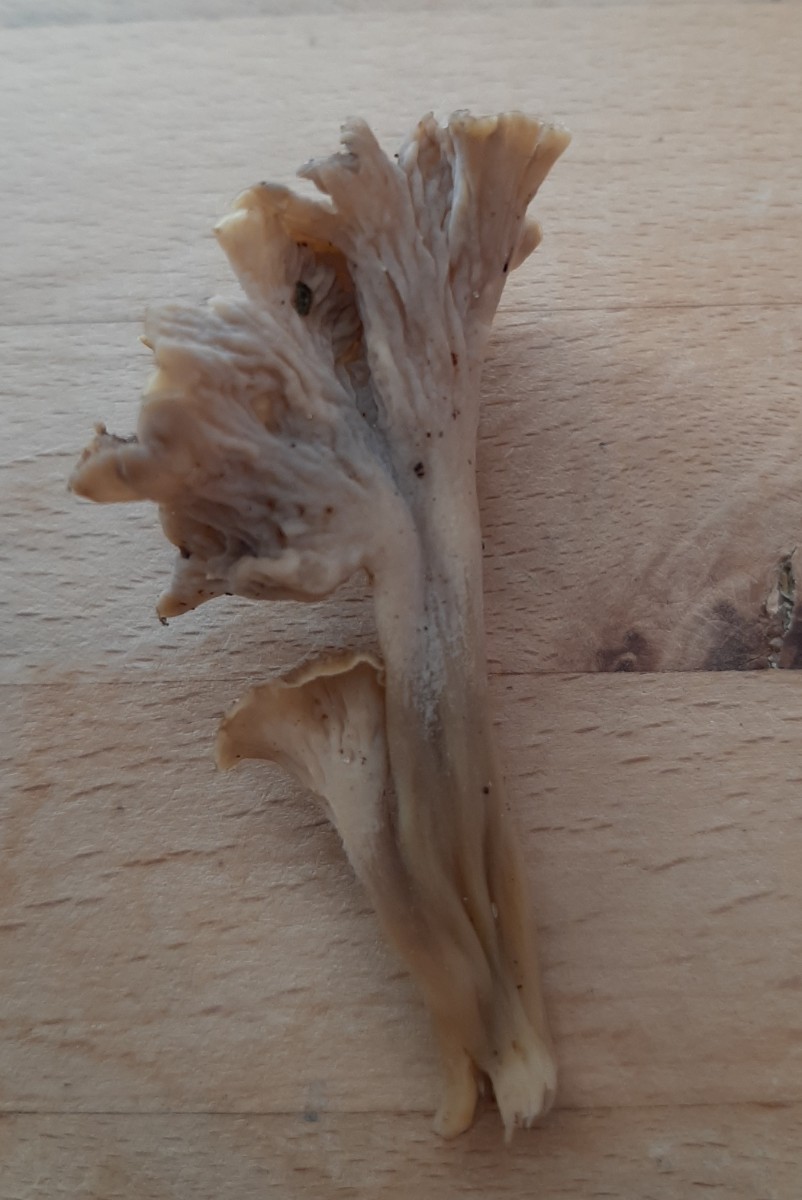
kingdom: Fungi
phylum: Basidiomycota
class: Agaricomycetes
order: Cantharellales
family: Hydnaceae
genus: Craterellus
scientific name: Craterellus undulatus
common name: liden kantarel
